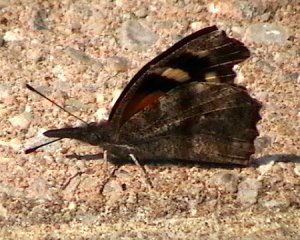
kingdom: Animalia
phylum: Arthropoda
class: Insecta
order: Lepidoptera
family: Nymphalidae
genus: Libytheana
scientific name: Libytheana carinenta
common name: American Snout
